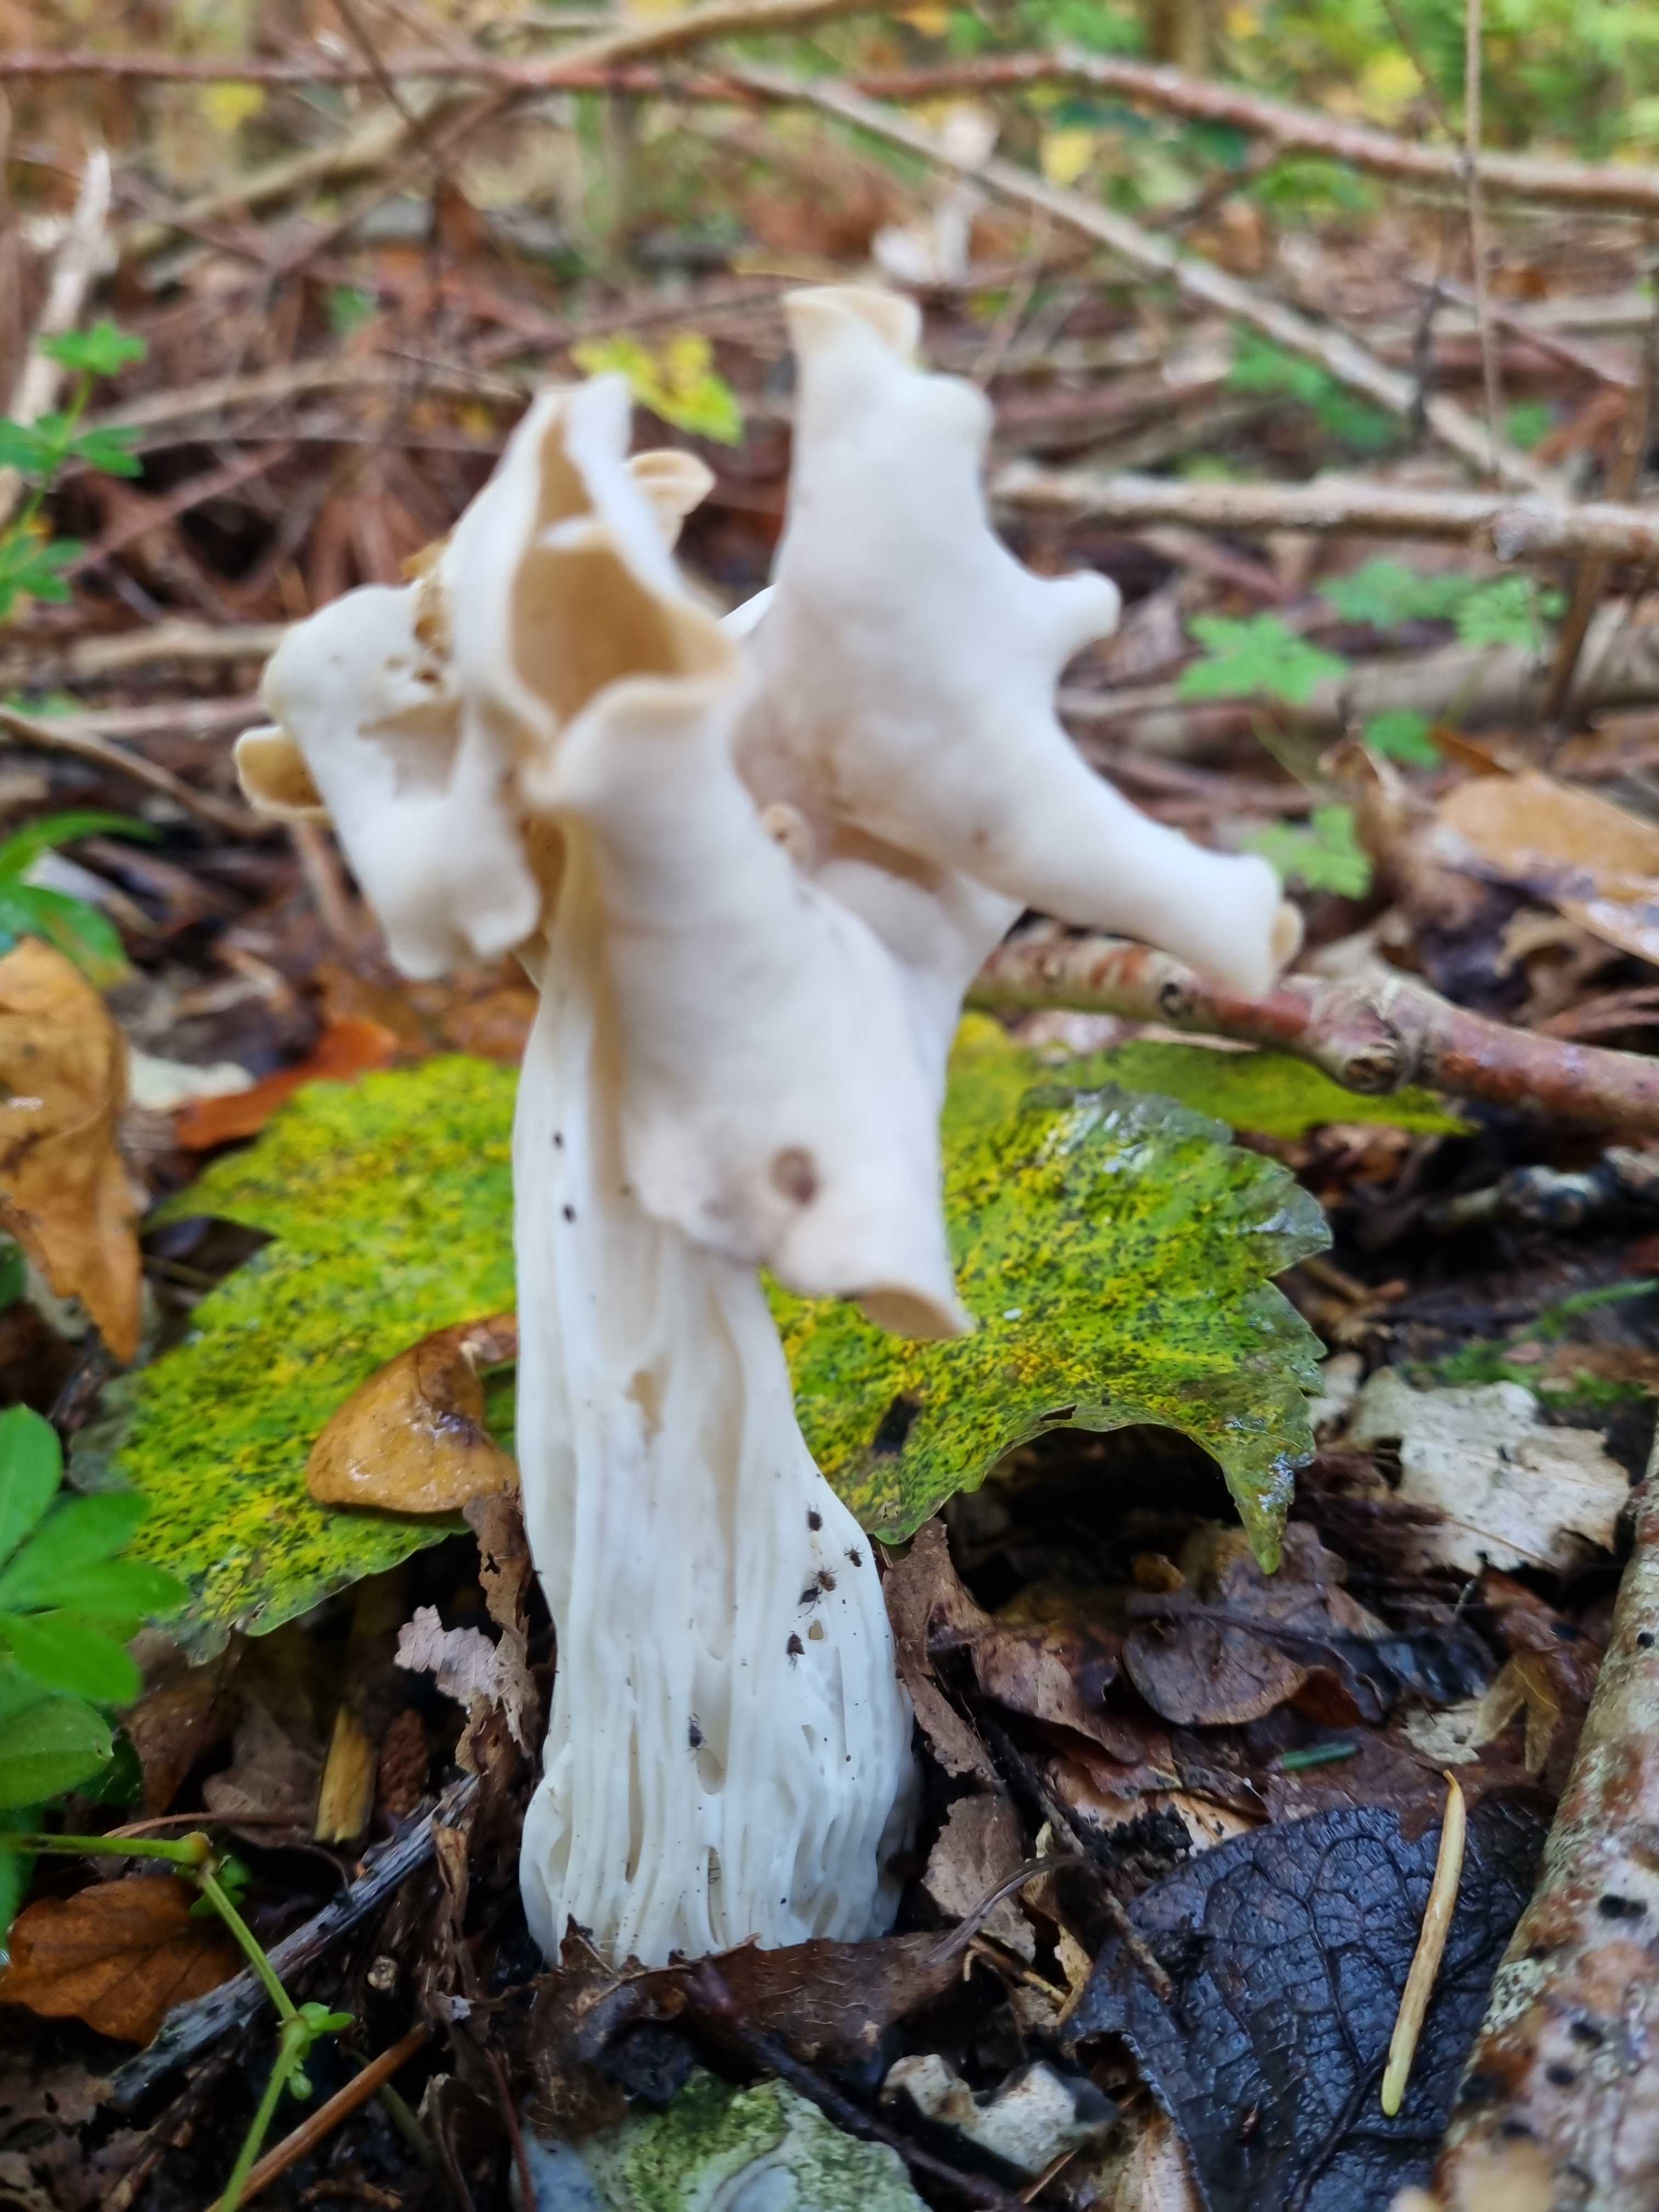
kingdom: Fungi
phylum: Ascomycota
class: Pezizomycetes
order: Pezizales
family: Helvellaceae
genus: Helvella
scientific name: Helvella crispa
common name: kruset foldhat
